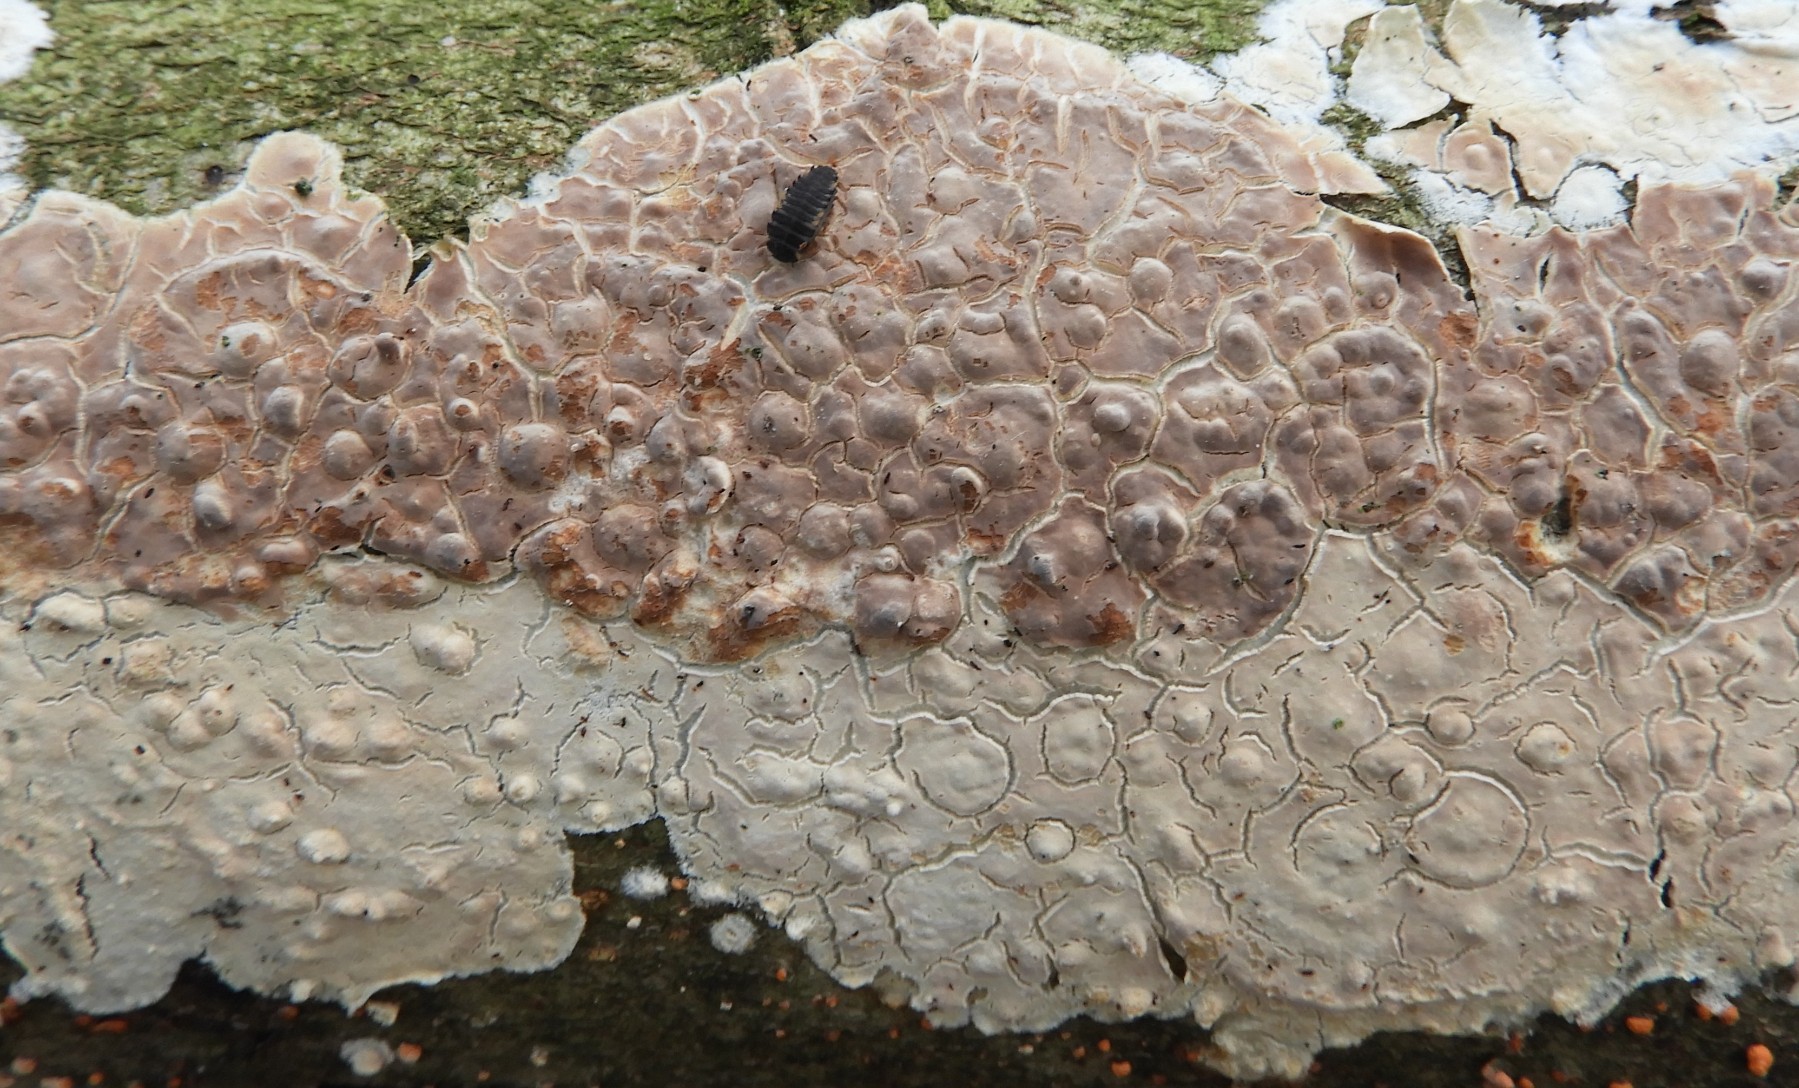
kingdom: Fungi
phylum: Basidiomycota
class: Agaricomycetes
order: Agaricales
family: Physalacriaceae
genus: Cylindrobasidium
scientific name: Cylindrobasidium evolvens
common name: sprækkehinde
